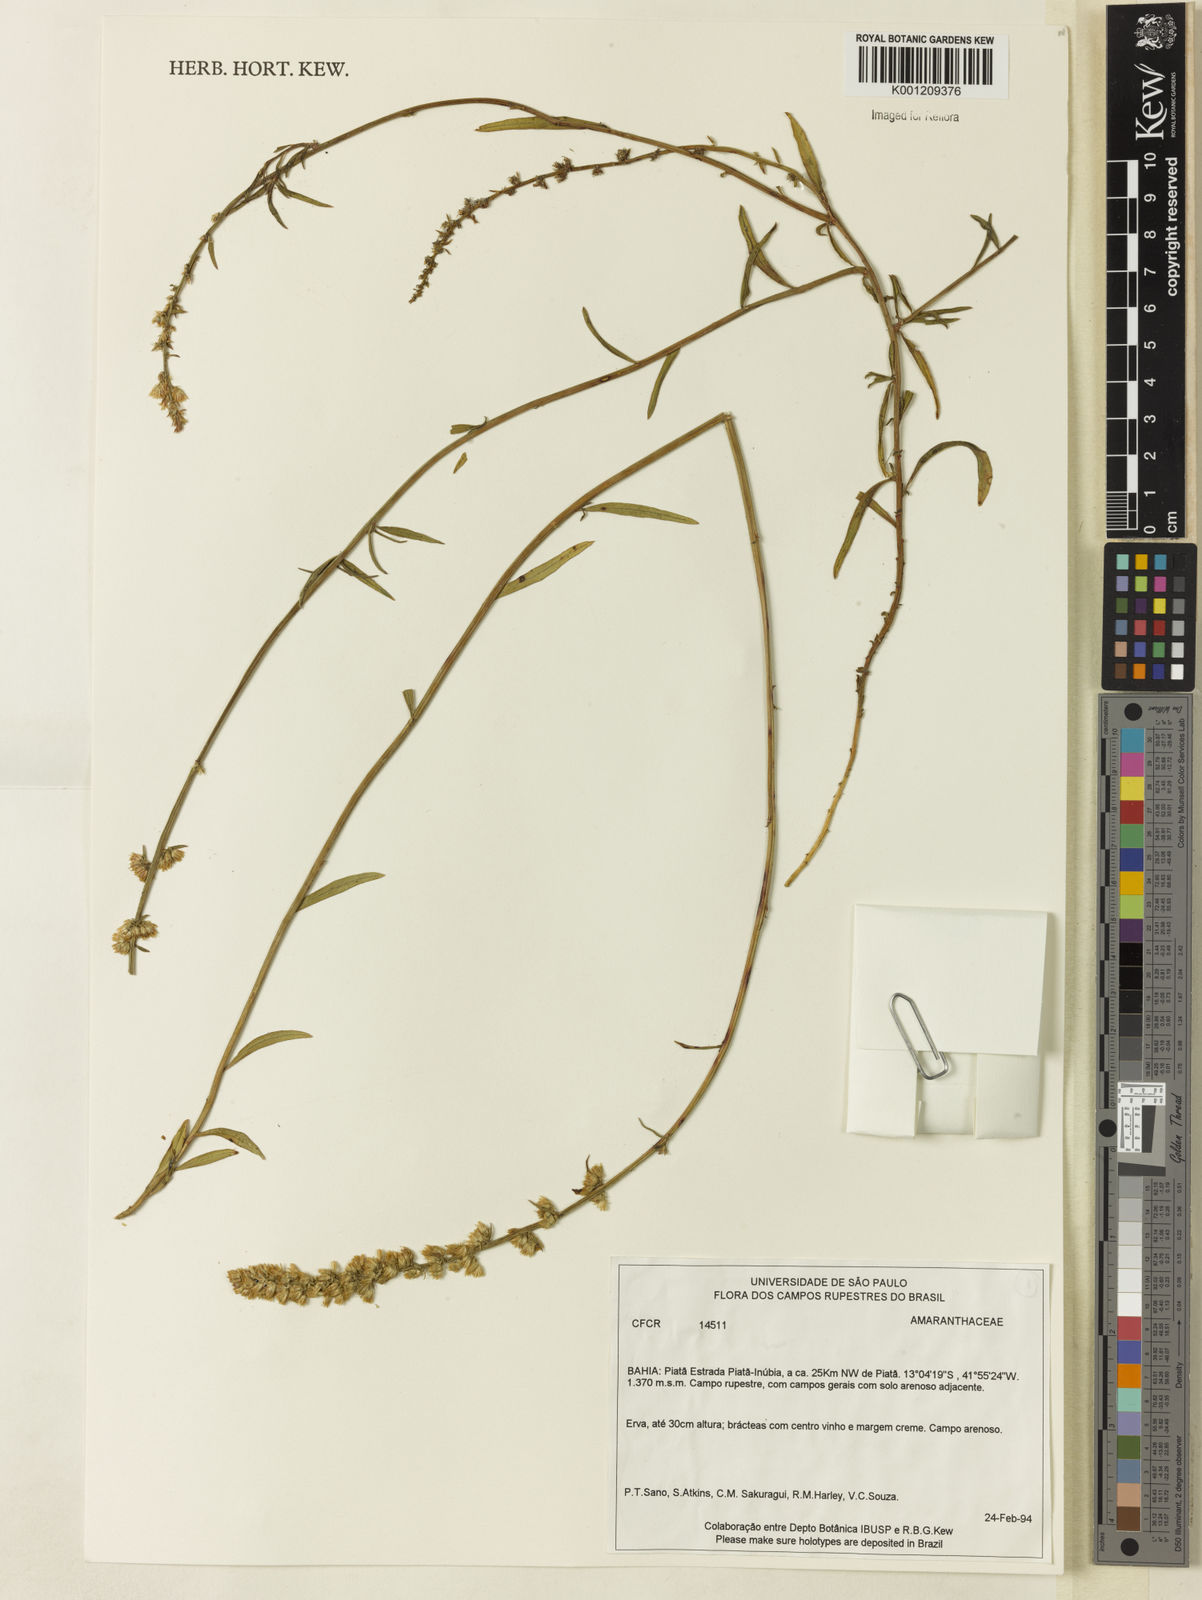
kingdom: Plantae
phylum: Tracheophyta
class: Magnoliopsida
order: Caryophyllales
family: Amaranthaceae
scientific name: Amaranthaceae
